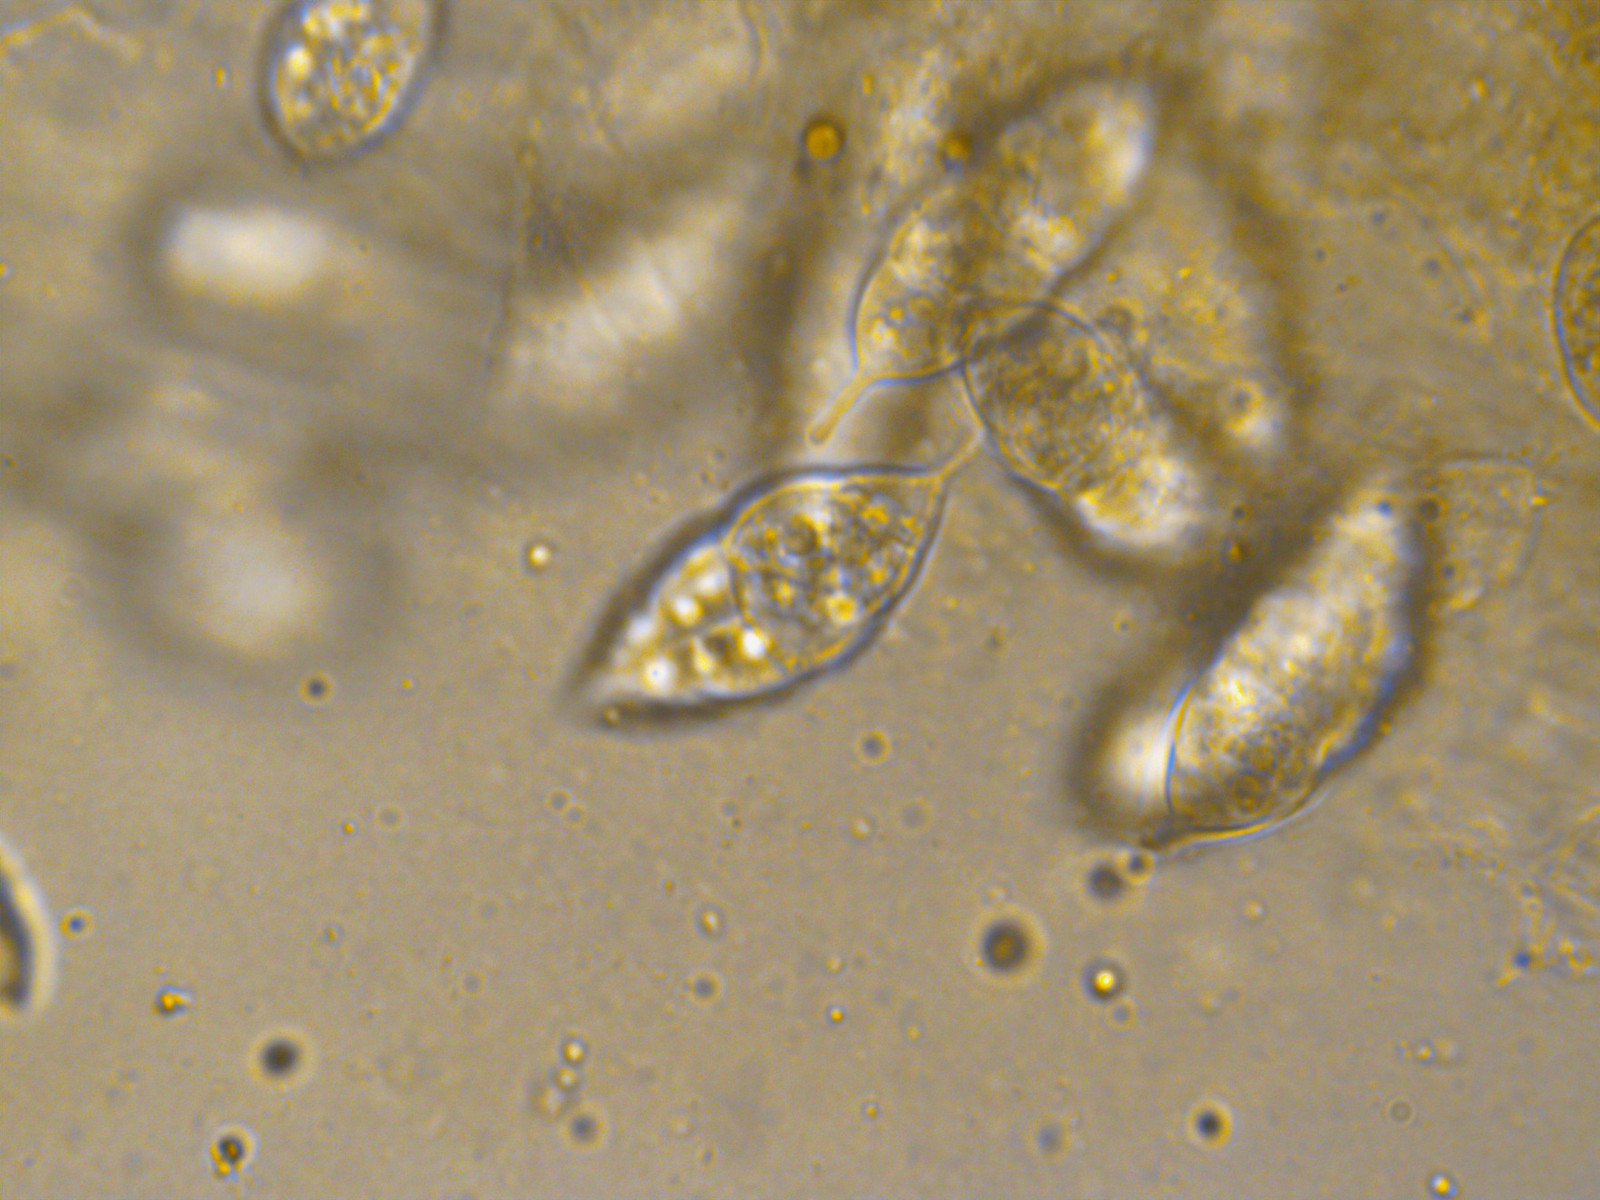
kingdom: Fungi
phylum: Ascomycota
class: Sordariomycetes
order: Hypocreales
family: Bionectriaceae
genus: Paranectria
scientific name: Paranectria oropensis
